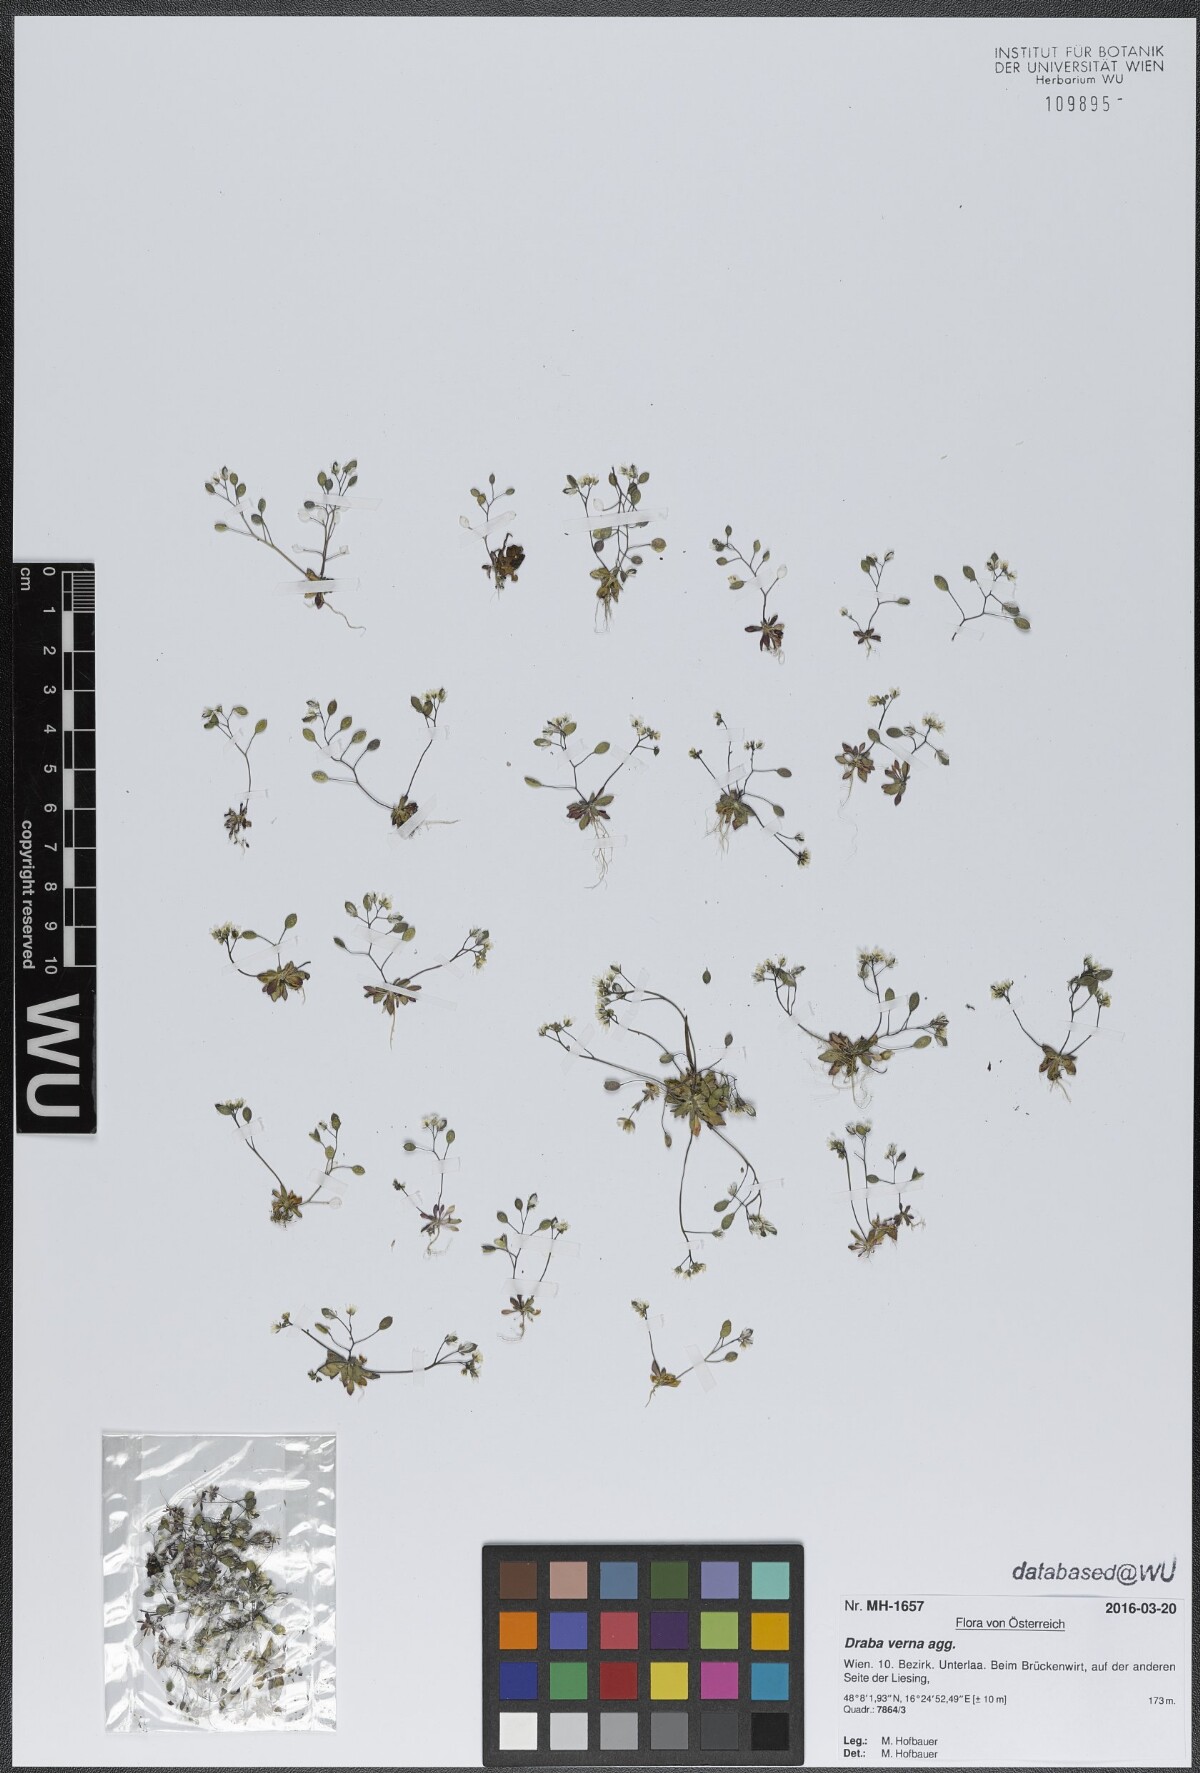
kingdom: Plantae
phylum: Tracheophyta
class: Magnoliopsida
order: Brassicales
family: Brassicaceae
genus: Draba
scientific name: Draba verna
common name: Spring draba
